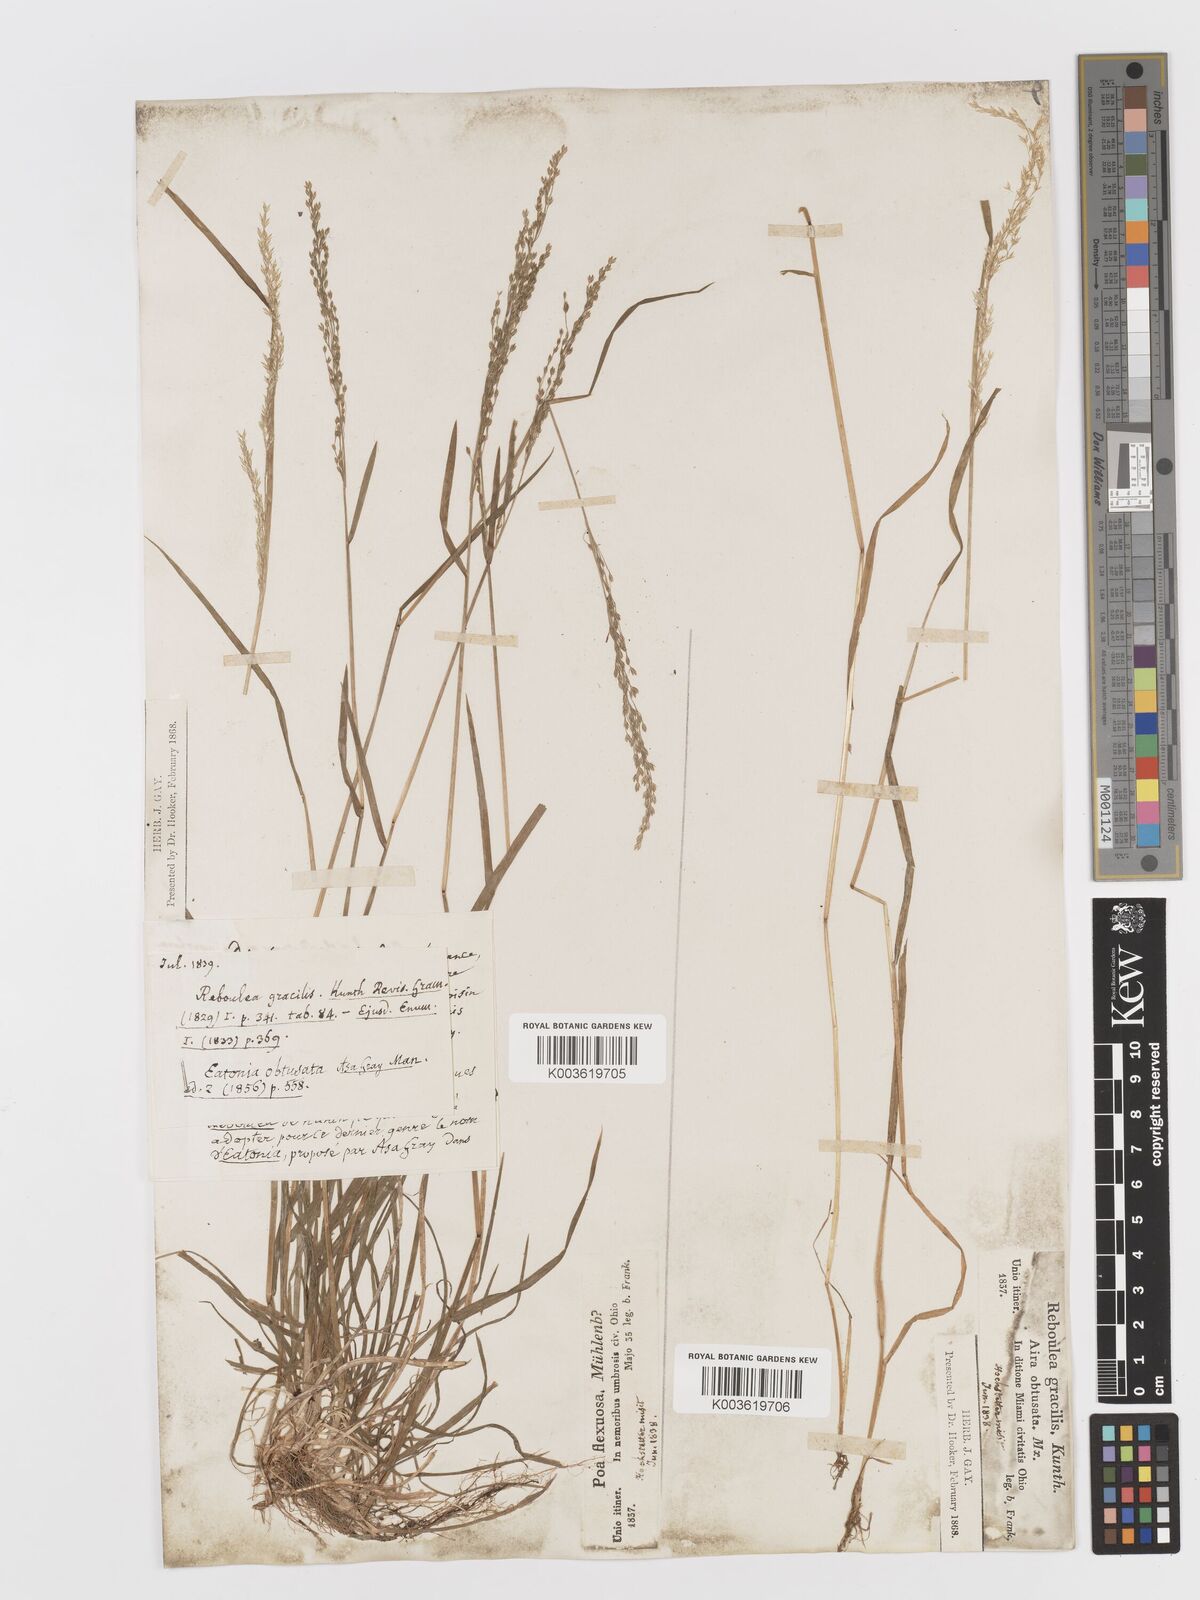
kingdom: Plantae
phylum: Tracheophyta
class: Liliopsida
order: Poales
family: Poaceae
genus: Sphenopholis
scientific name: Sphenopholis obtusata
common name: Prairie grass
